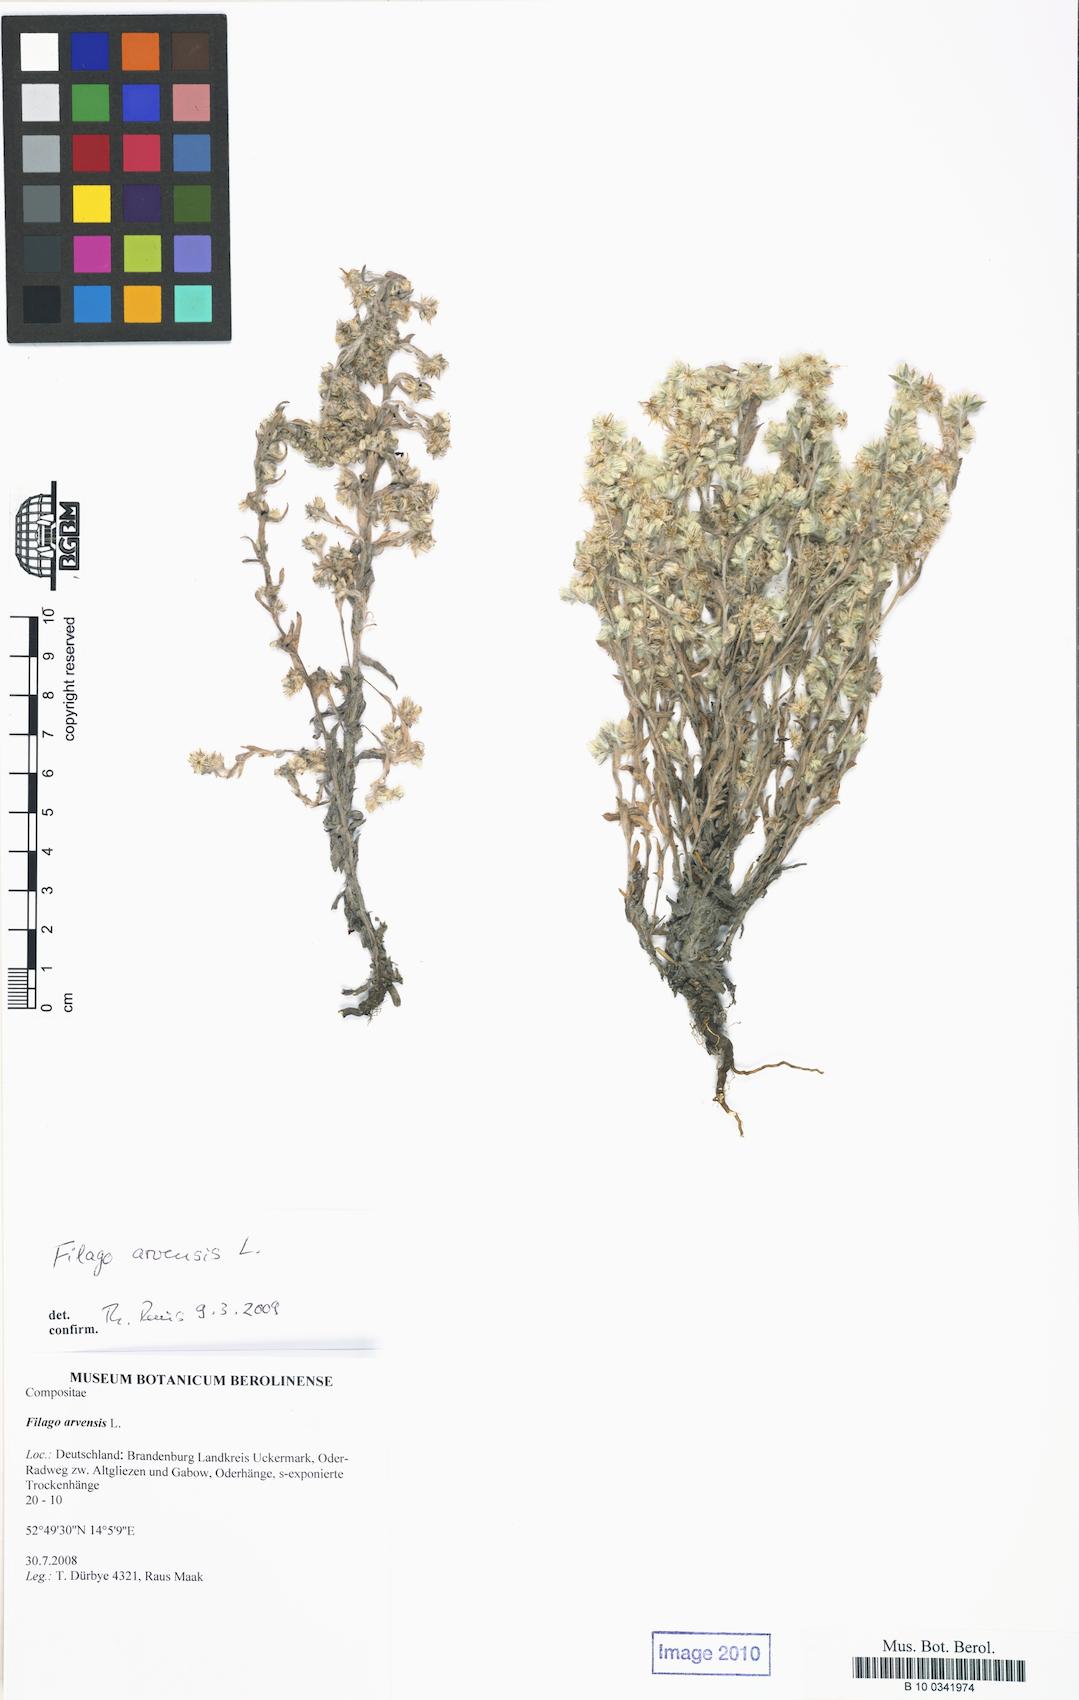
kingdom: Plantae
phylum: Tracheophyta
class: Magnoliopsida
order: Asterales
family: Asteraceae
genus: Filago
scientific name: Filago arvensis
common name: Field cudweed
